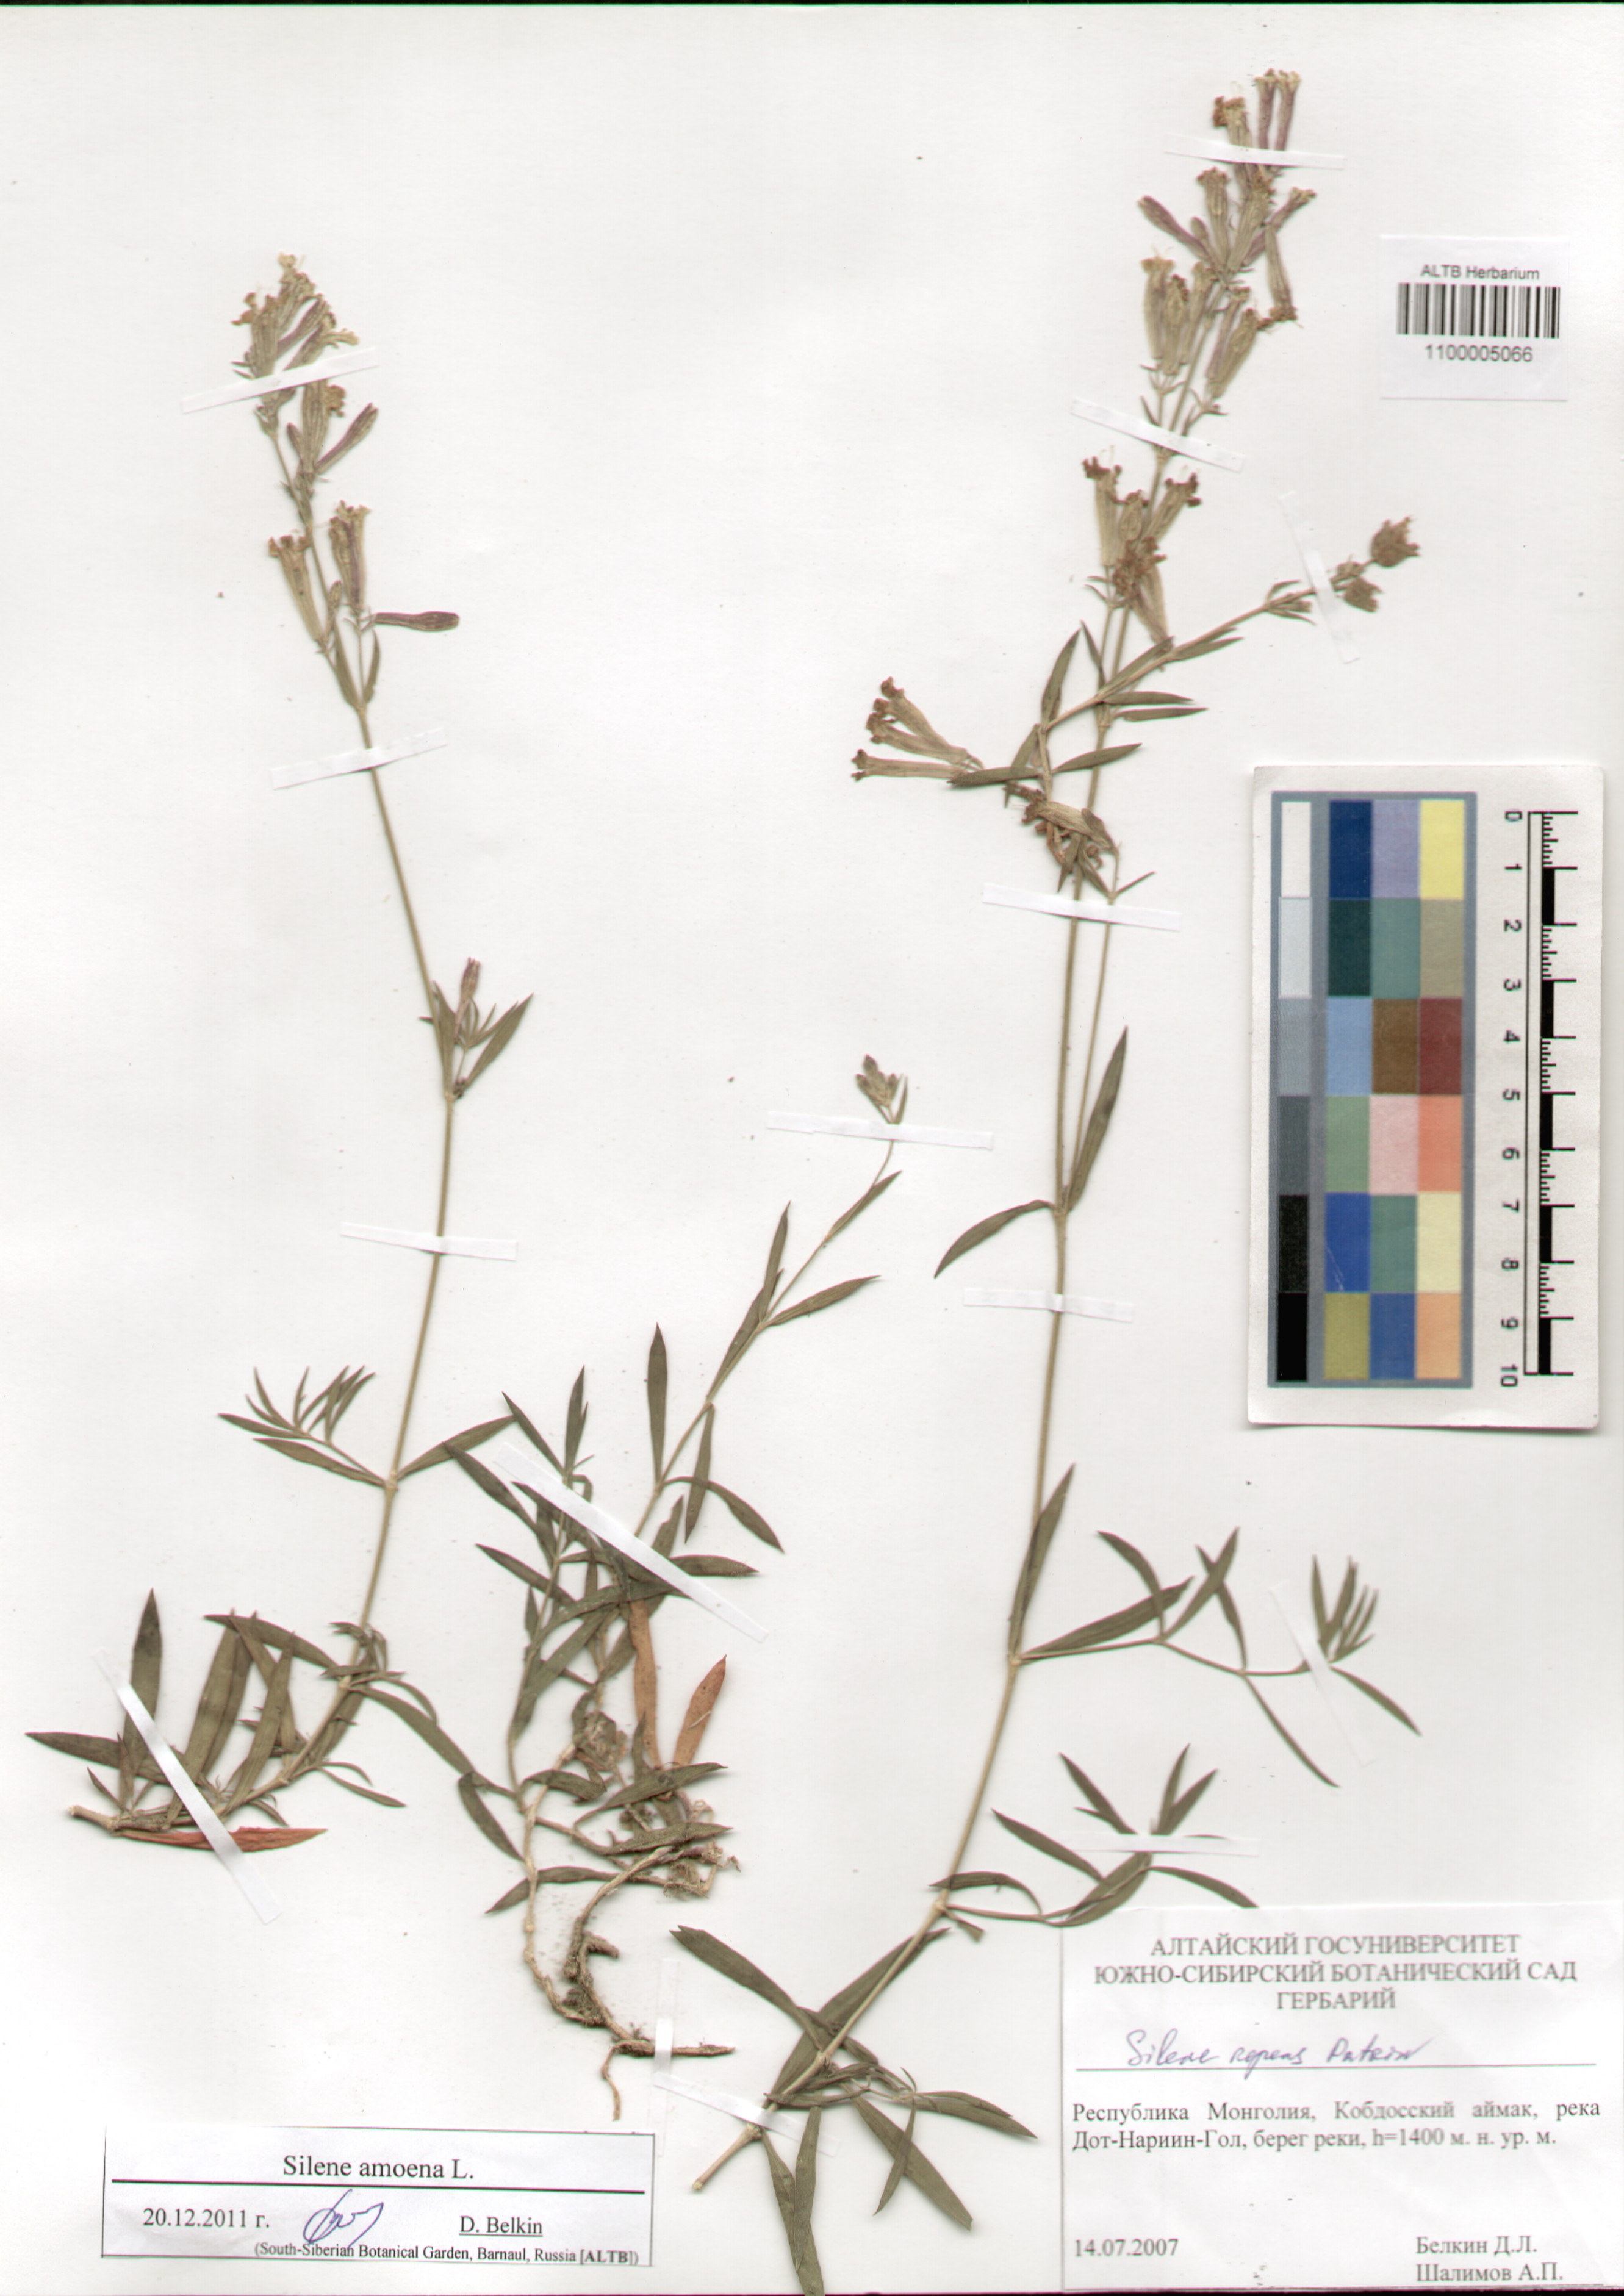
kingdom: Plantae
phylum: Tracheophyta
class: Magnoliopsida
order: Caryophyllales
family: Caryophyllaceae
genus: Silene
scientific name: Silene amoena
